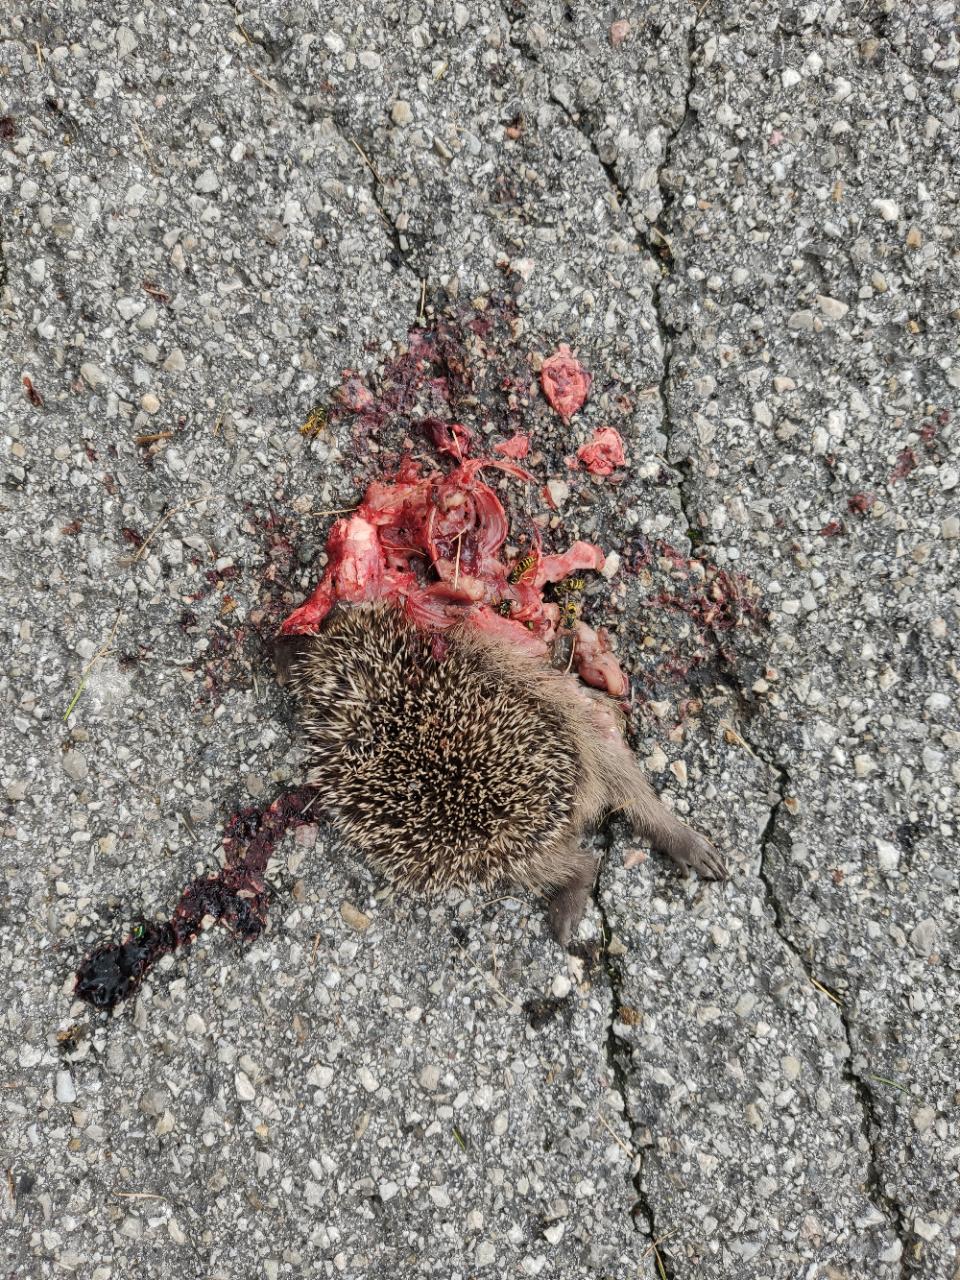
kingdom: Animalia
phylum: Chordata
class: Mammalia
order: Erinaceomorpha
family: Erinaceidae
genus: Erinaceus
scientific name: Erinaceus
